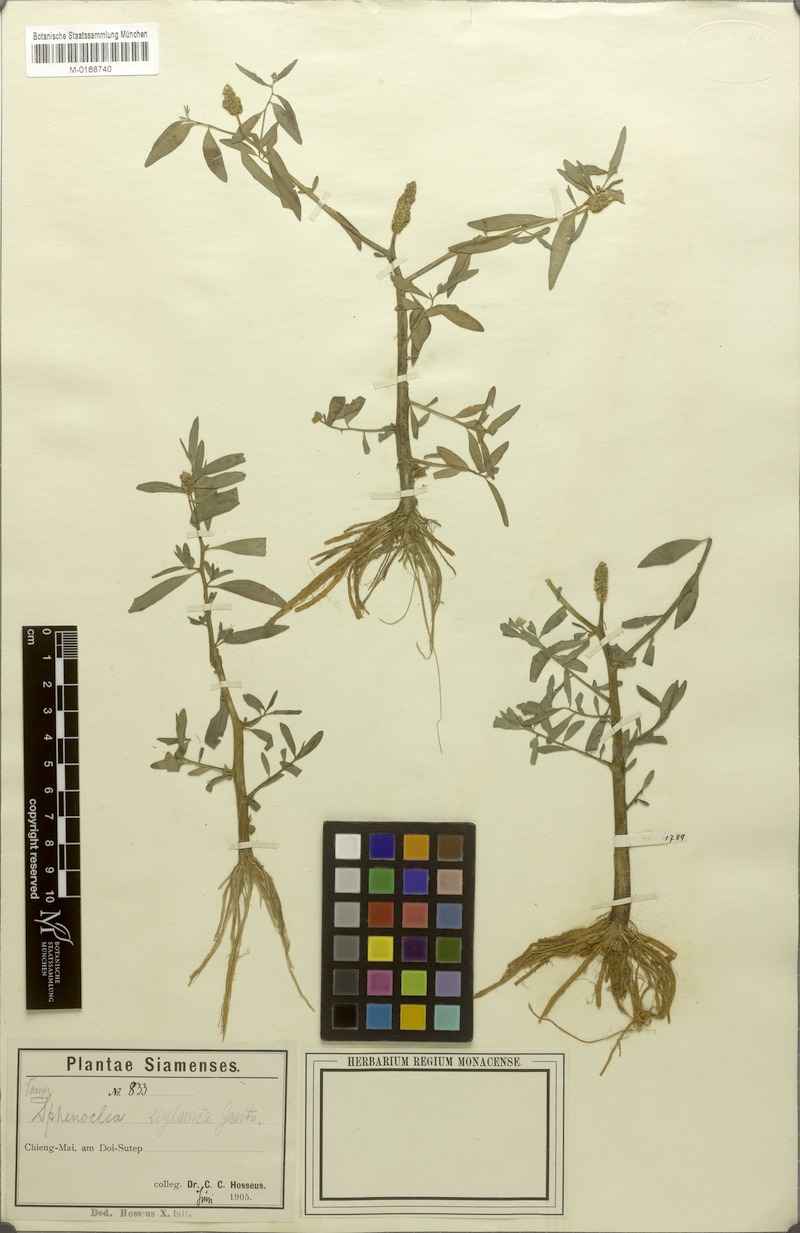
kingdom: Plantae
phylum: Tracheophyta
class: Magnoliopsida
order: Solanales
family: Sphenocleaceae
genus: Sphenoclea
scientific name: Sphenoclea zeylanica
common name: Chickenspike
